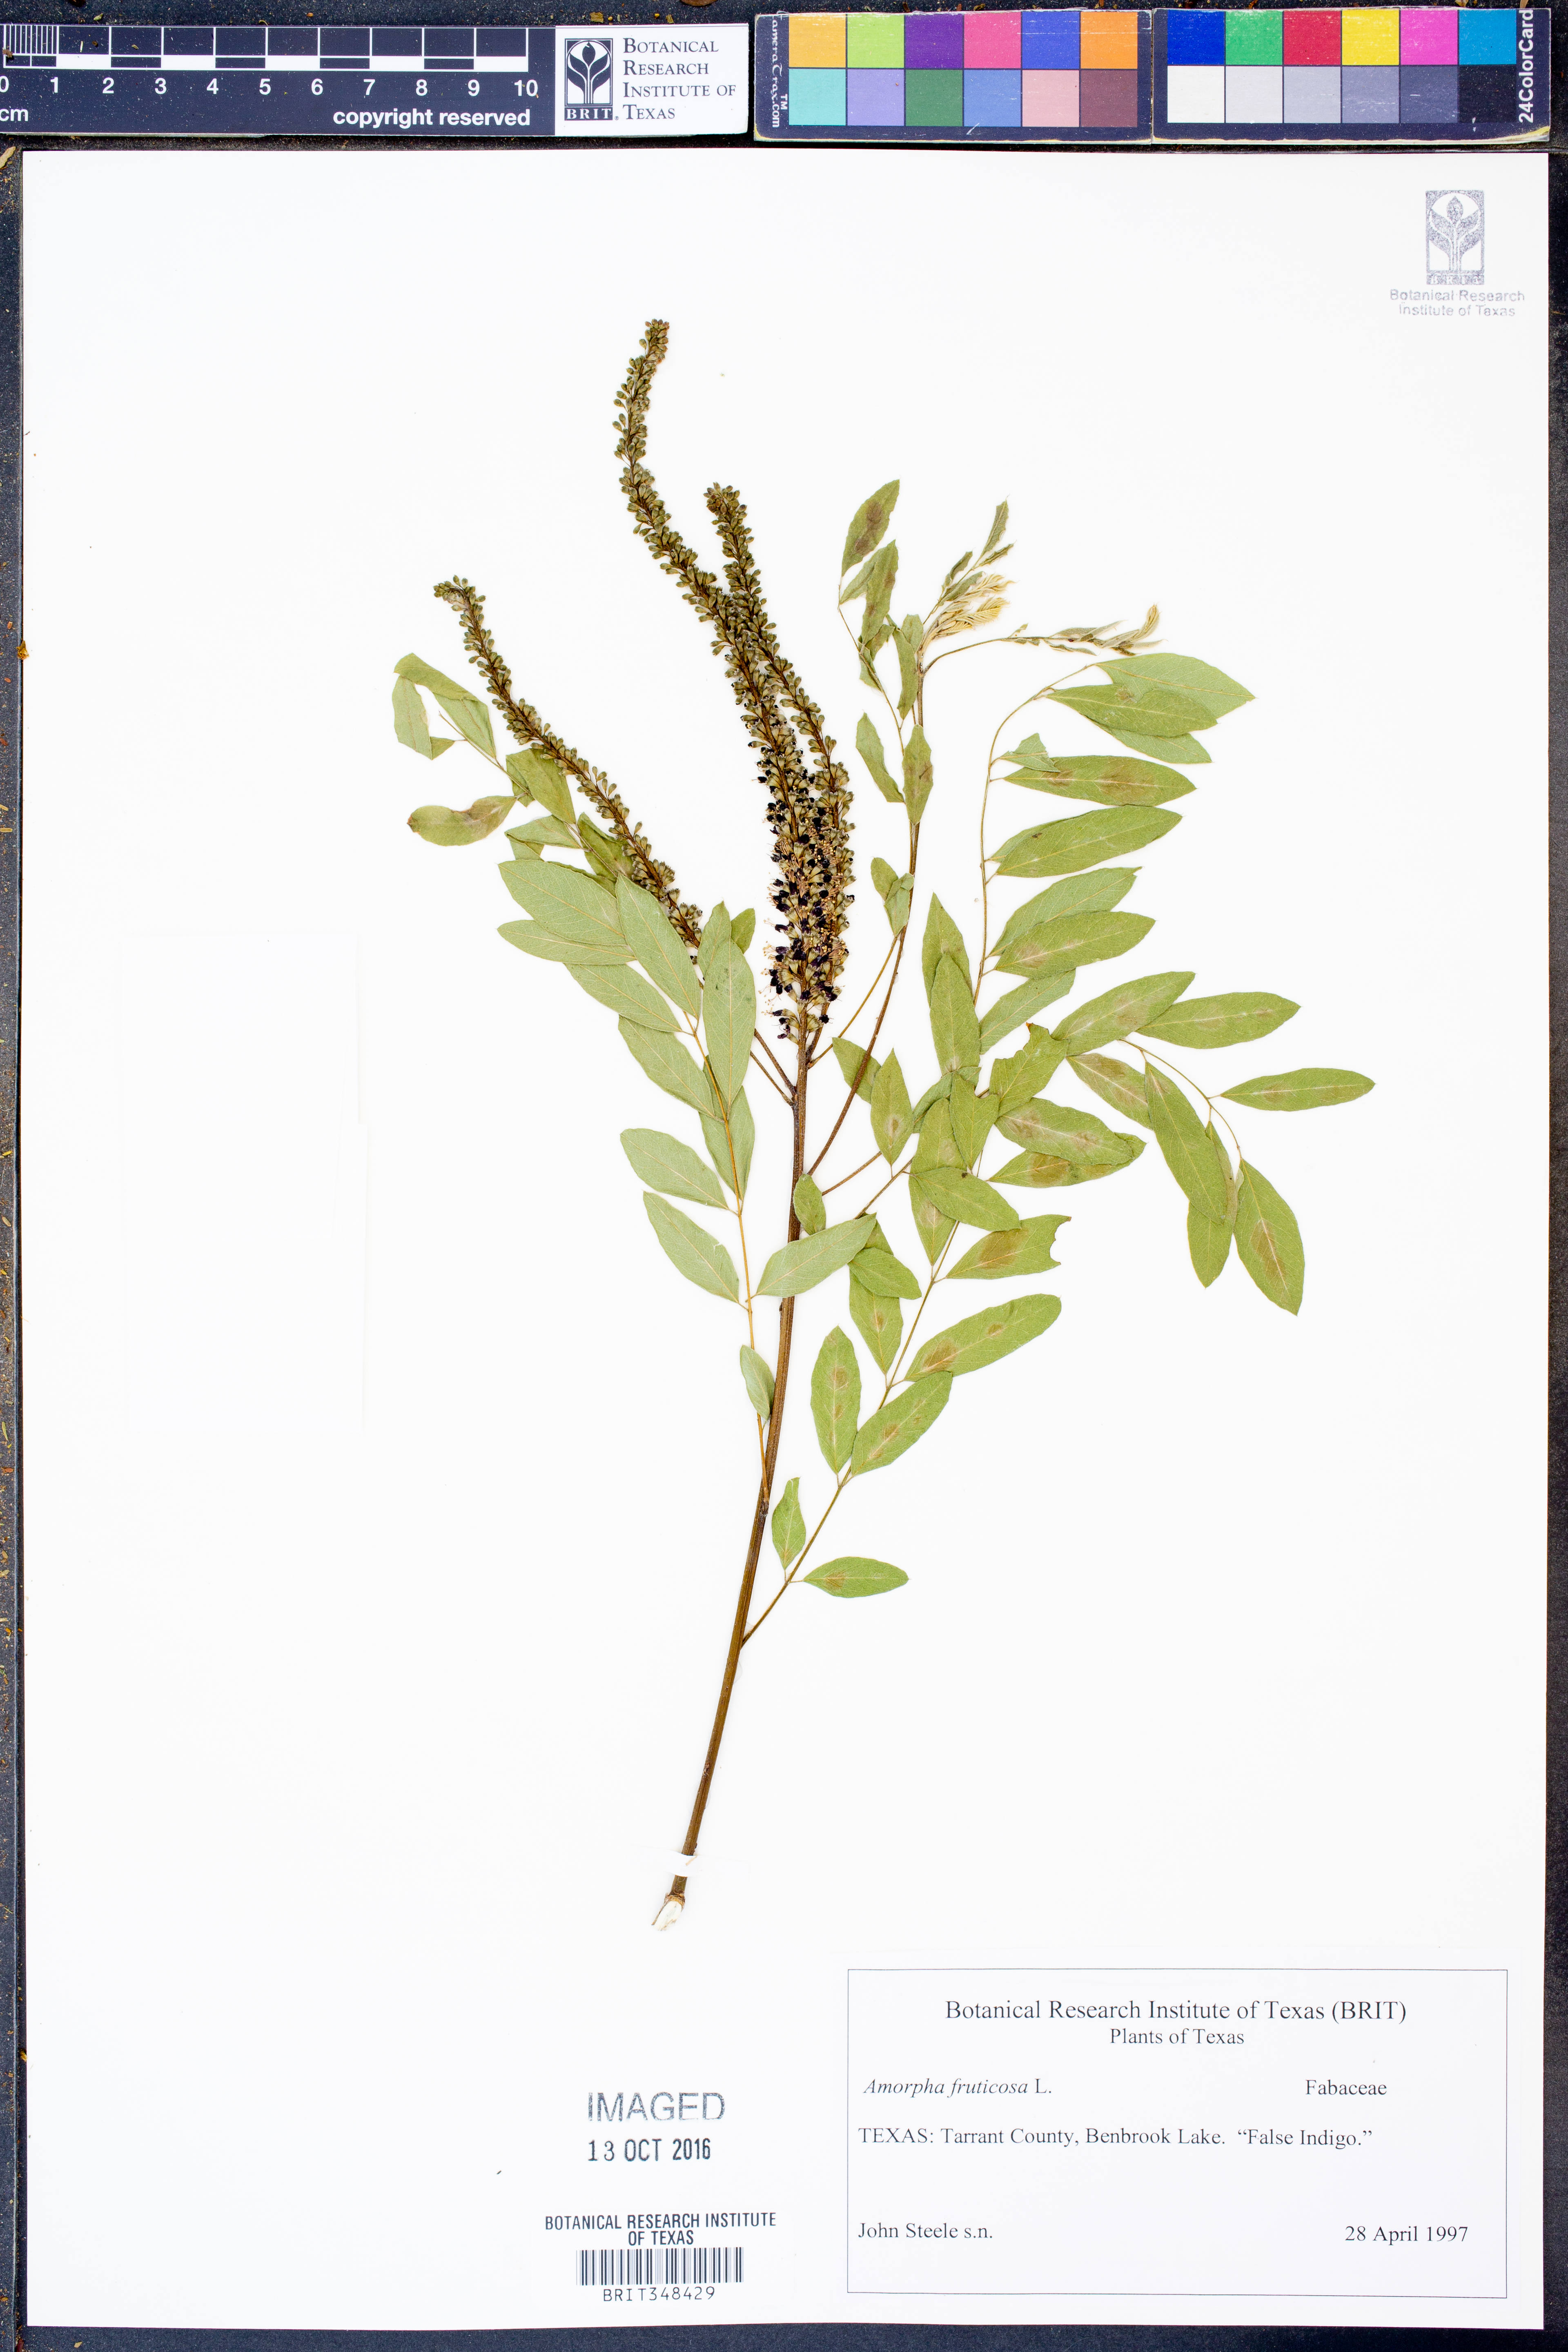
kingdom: Plantae
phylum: Tracheophyta
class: Magnoliopsida
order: Fabales
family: Fabaceae
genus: Amorpha
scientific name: Amorpha fruticosa
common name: False indigo
